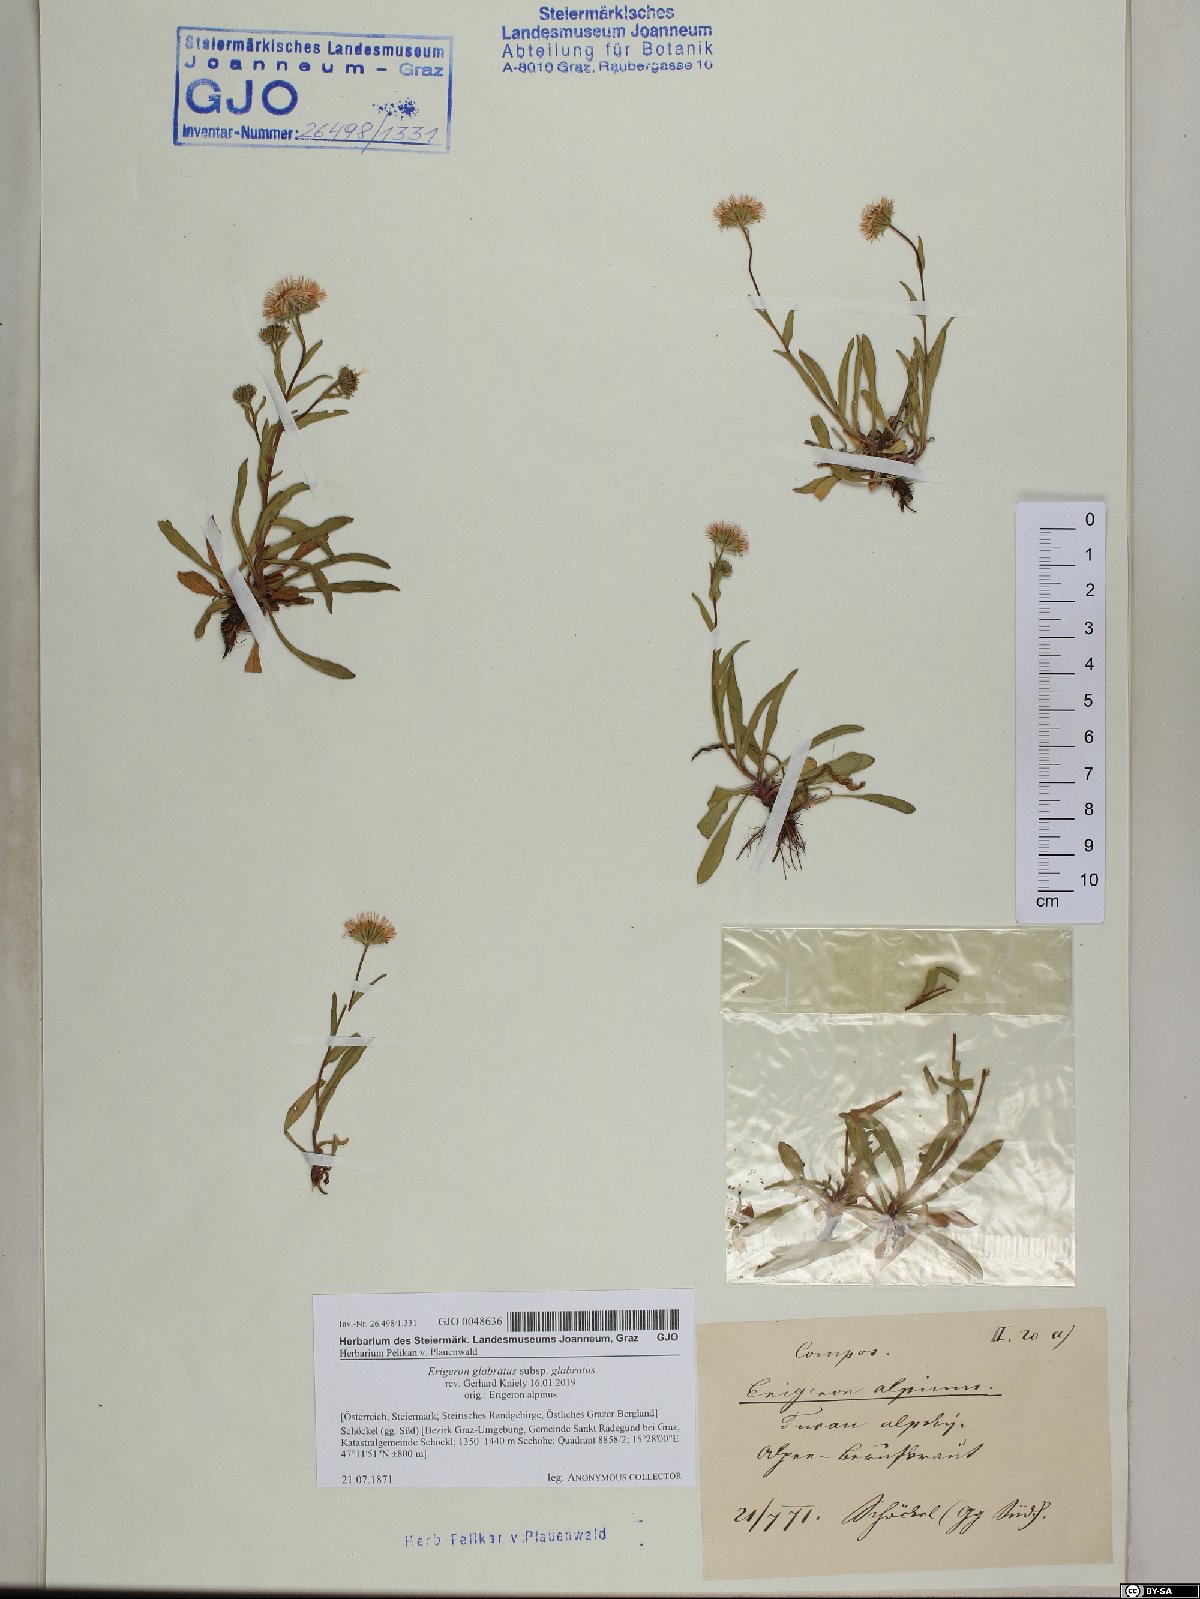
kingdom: Plantae
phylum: Tracheophyta
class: Magnoliopsida
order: Asterales
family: Asteraceae
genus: Erigeron
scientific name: Erigeron glabratus
